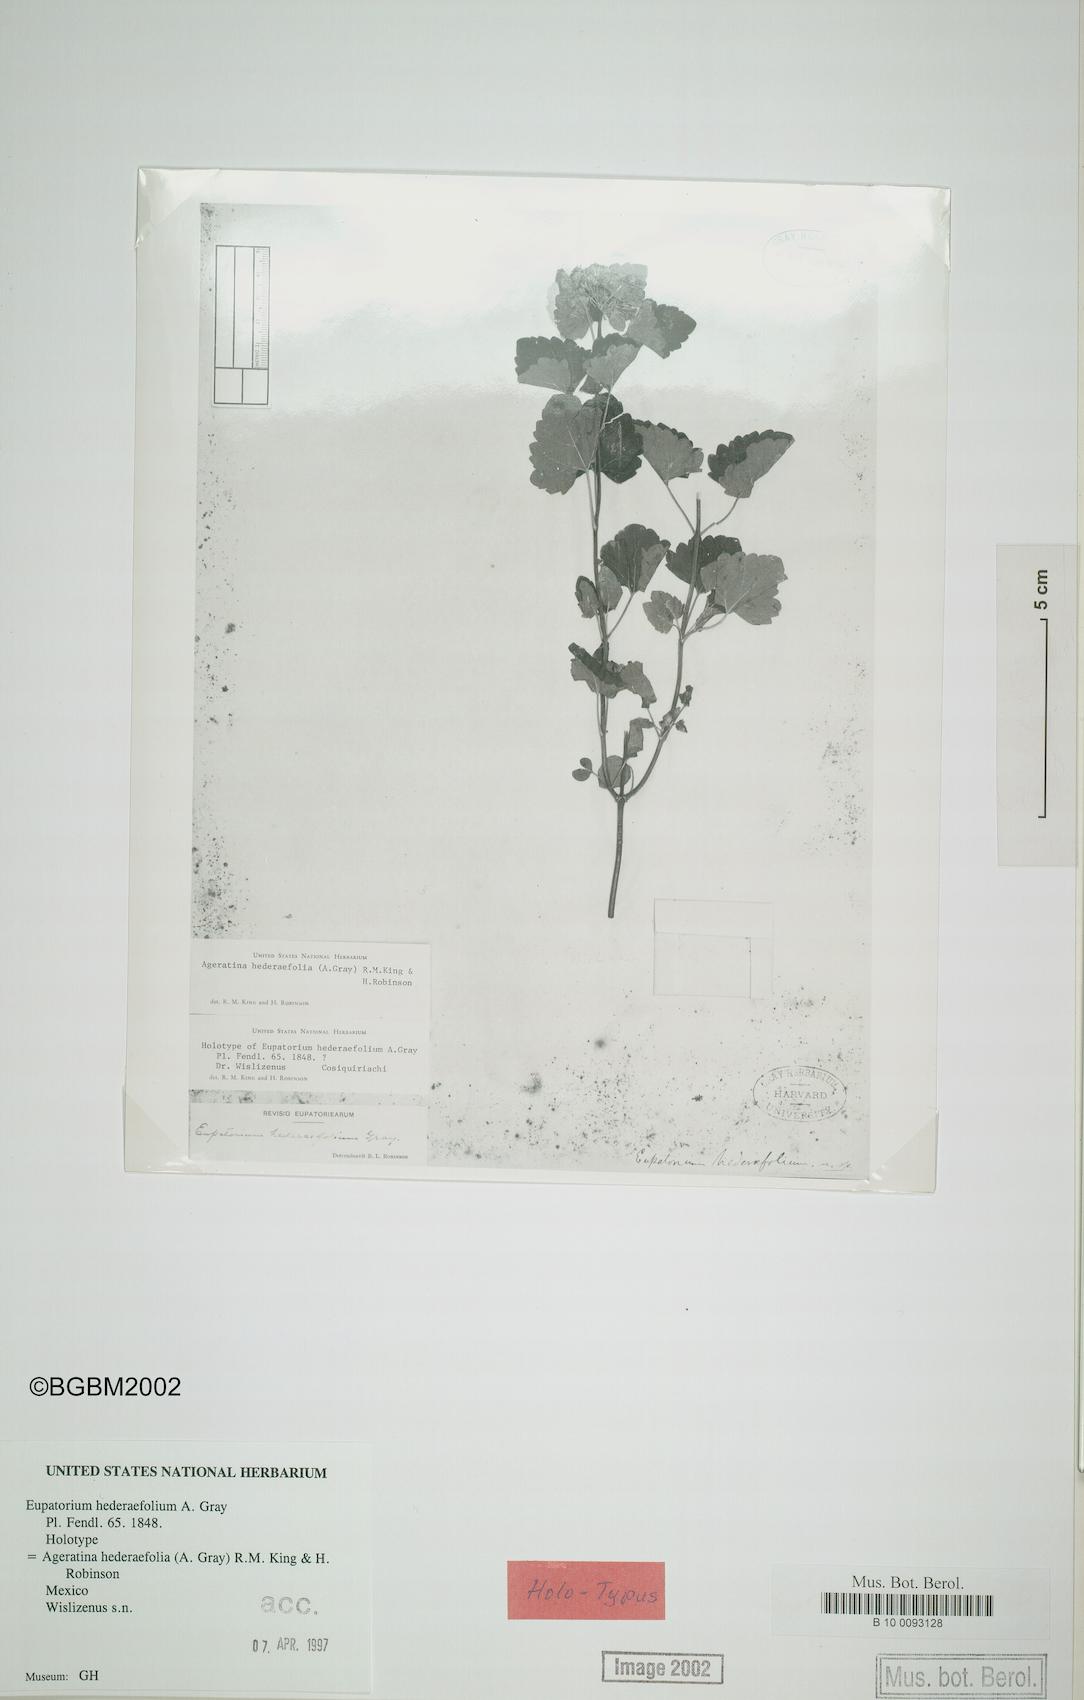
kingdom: Plantae
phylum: Tracheophyta
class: Magnoliopsida
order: Asterales
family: Asteraceae
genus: Ageratina
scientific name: Ageratina hederifolia
